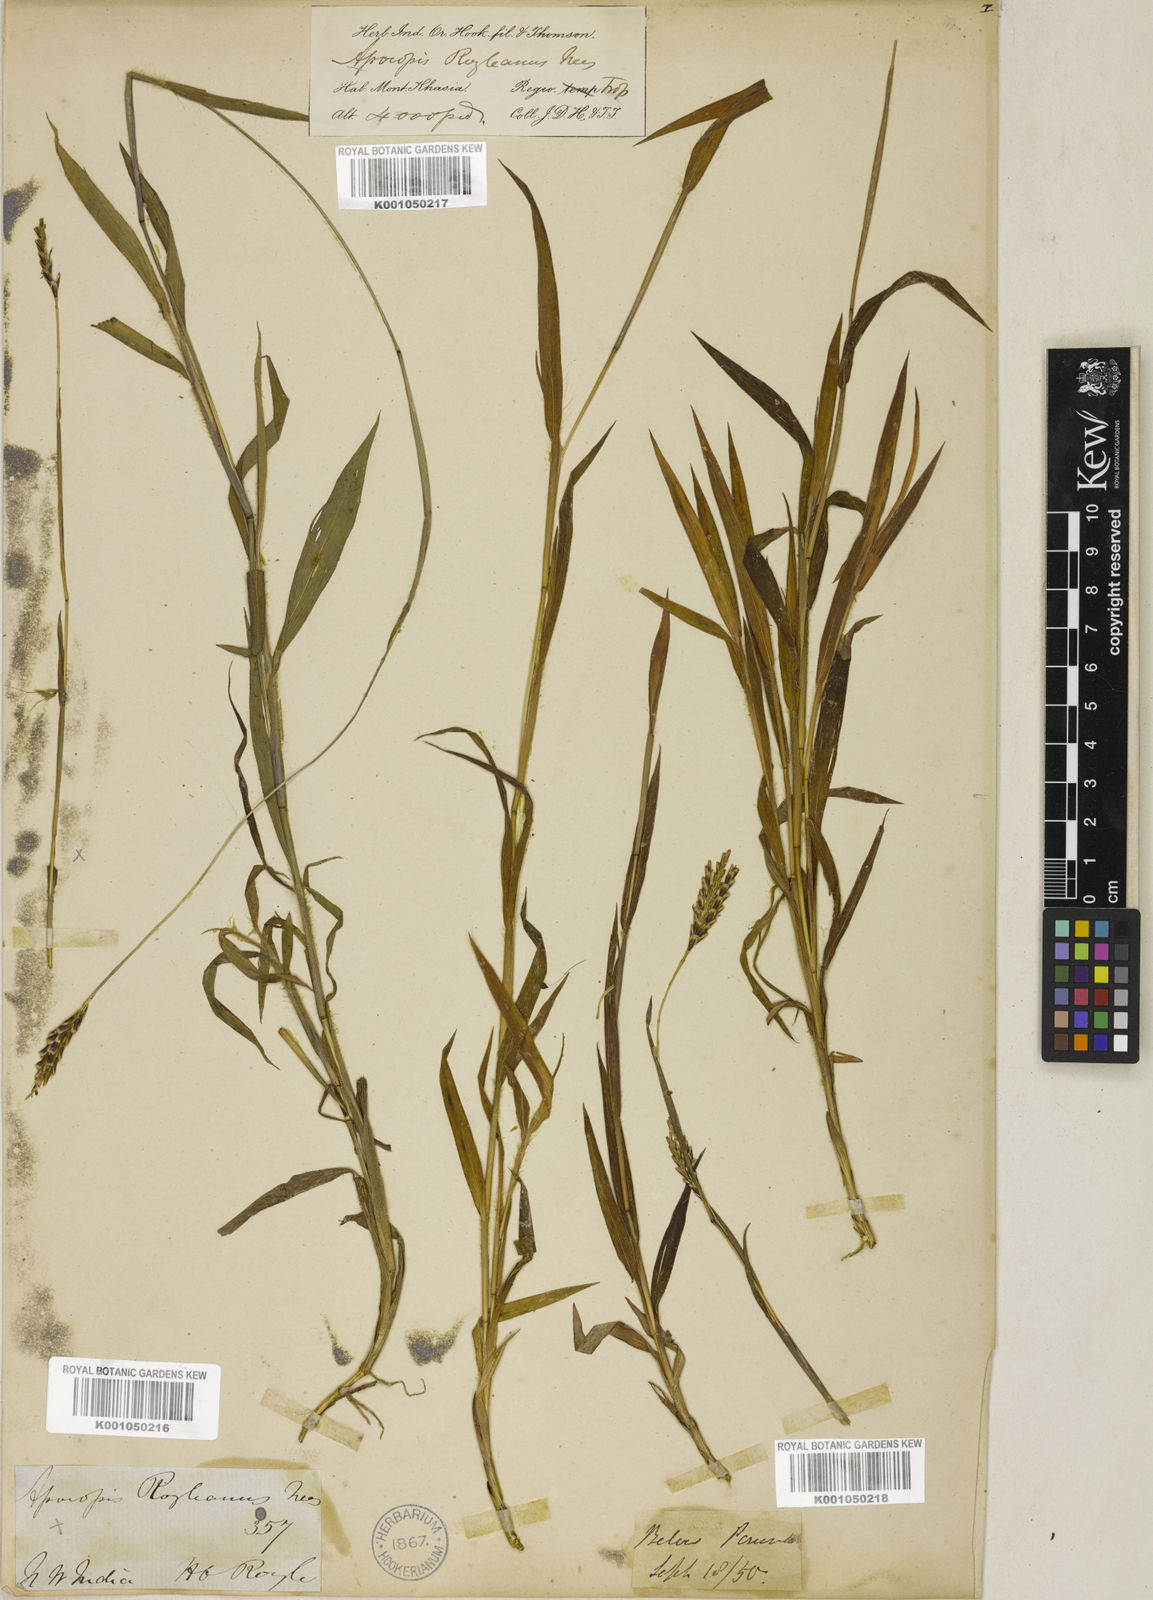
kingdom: Plantae
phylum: Tracheophyta
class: Liliopsida
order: Poales
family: Poaceae
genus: Apocopis
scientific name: Apocopis paleaceus
